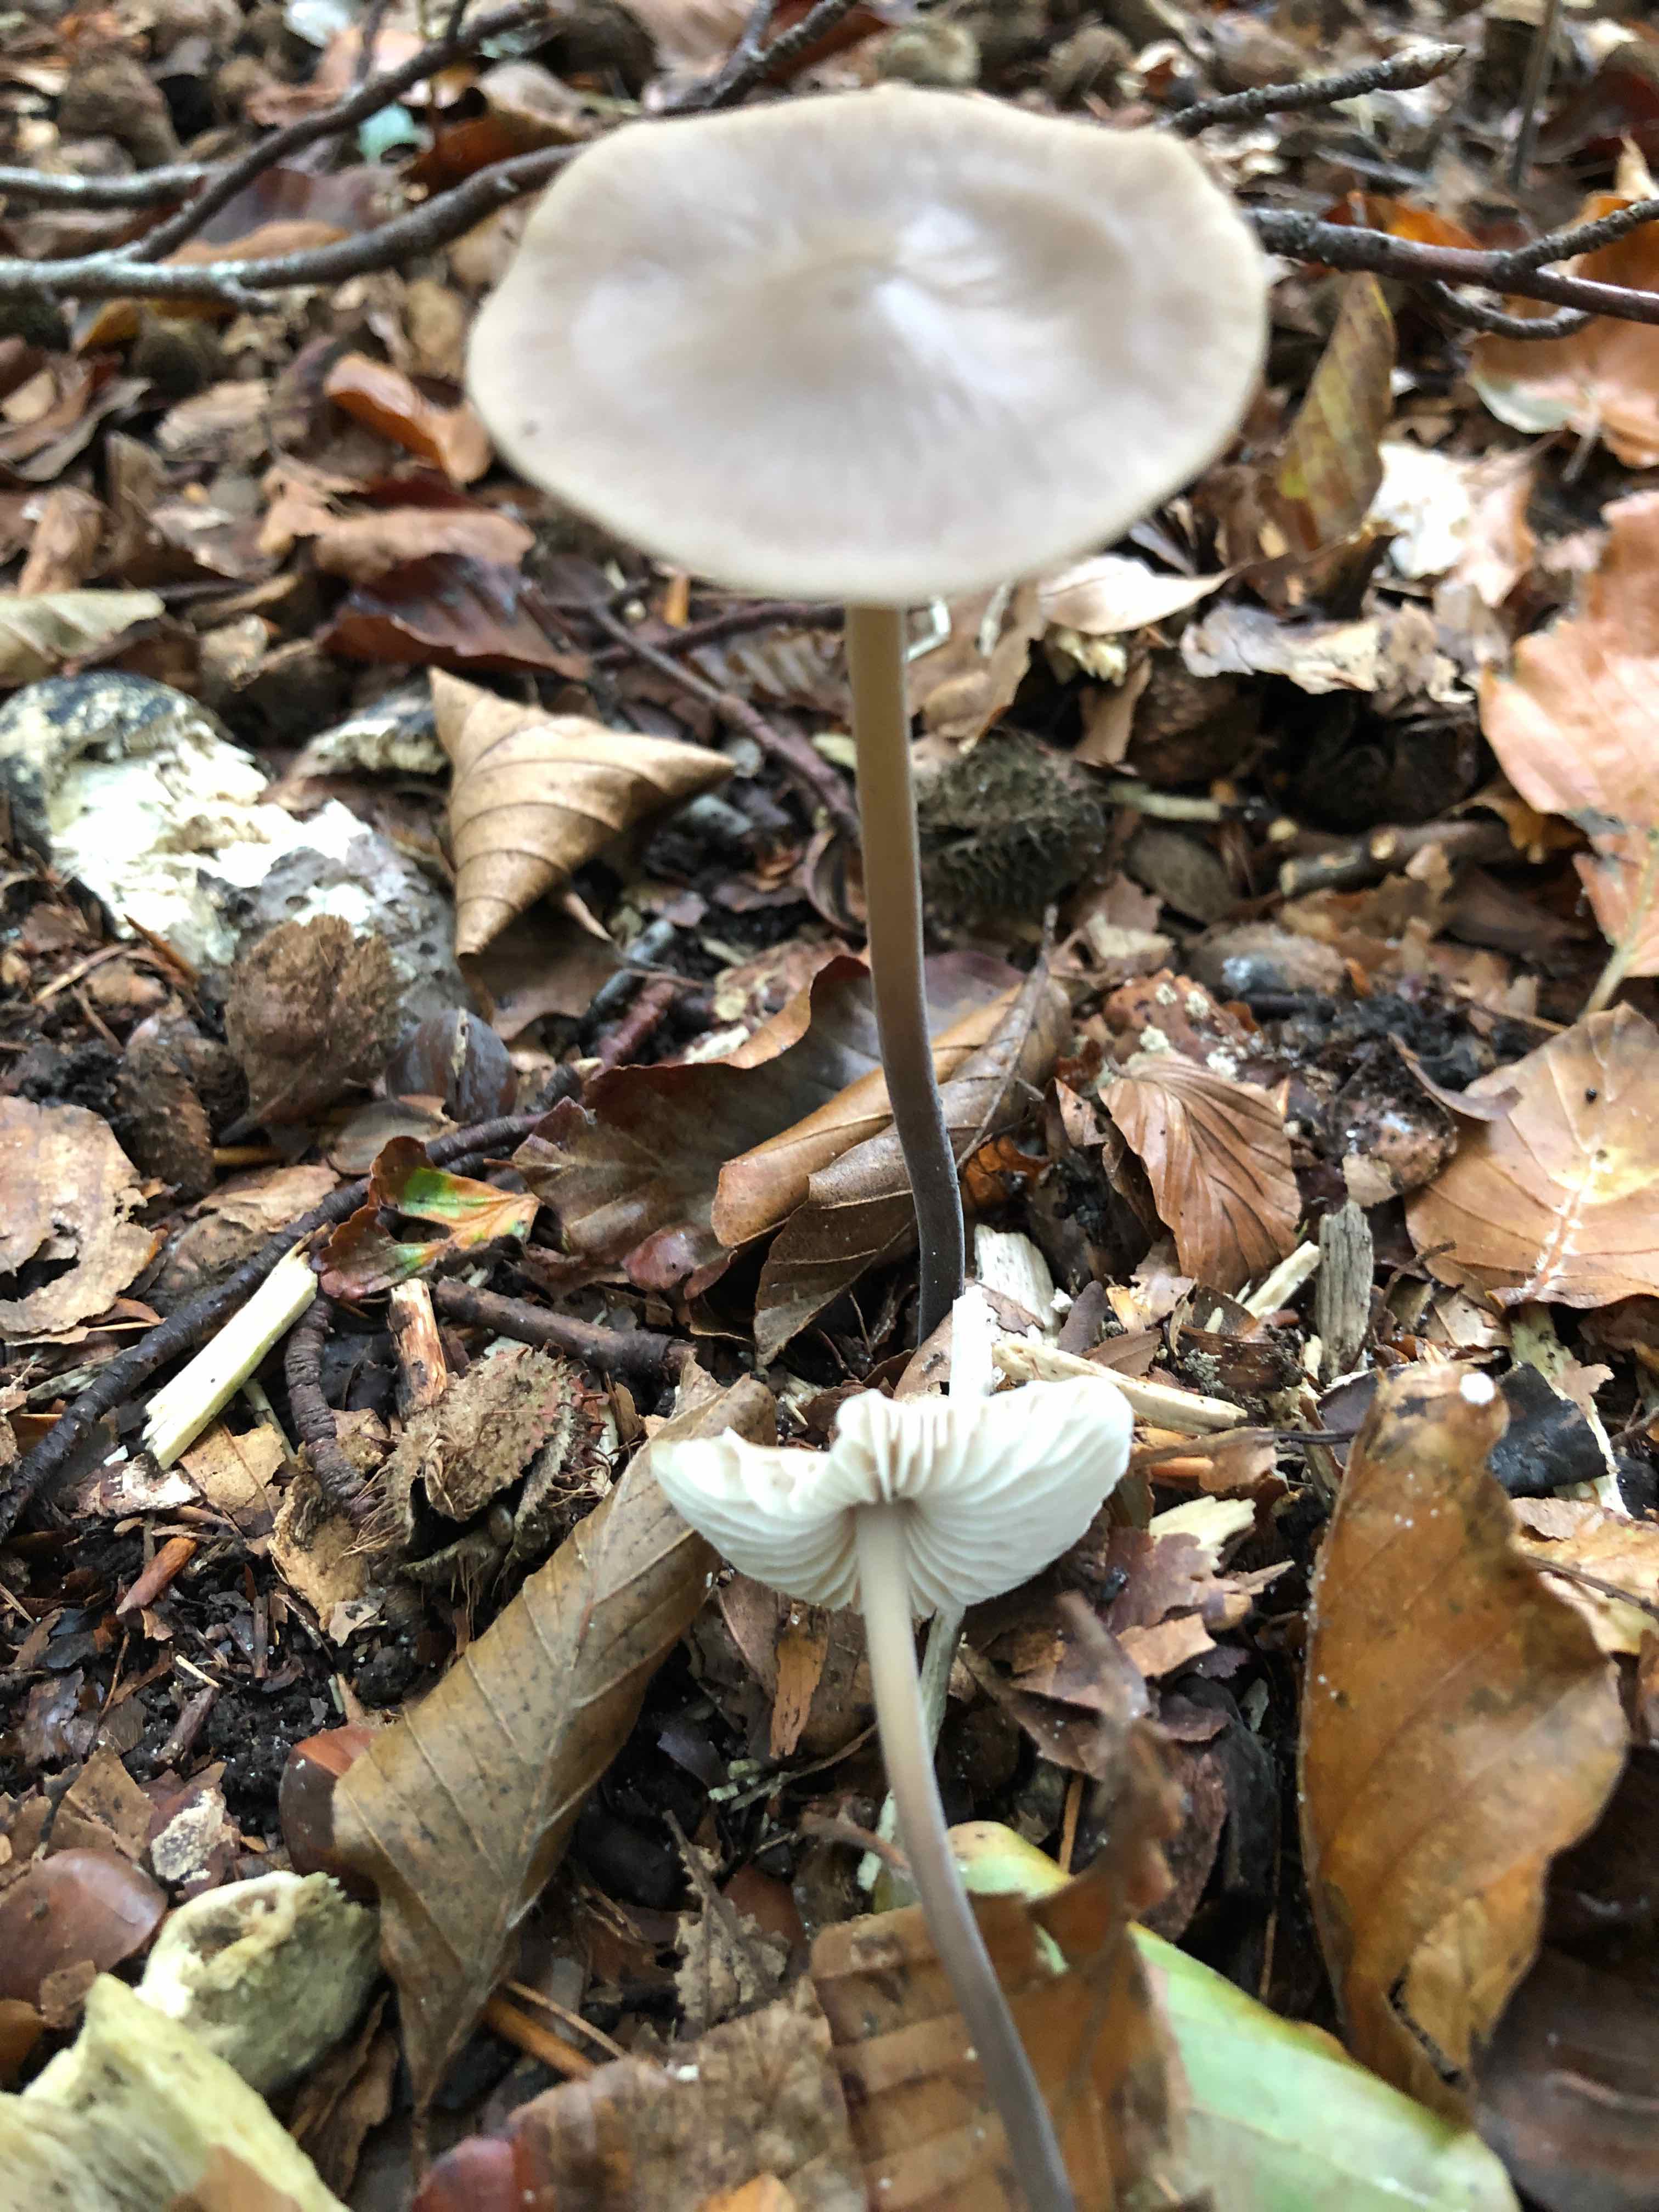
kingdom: Fungi
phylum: Basidiomycota
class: Agaricomycetes
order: Agaricales
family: Omphalotaceae
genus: Mycetinis
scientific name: Mycetinis alliaceus
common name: stor løghat
